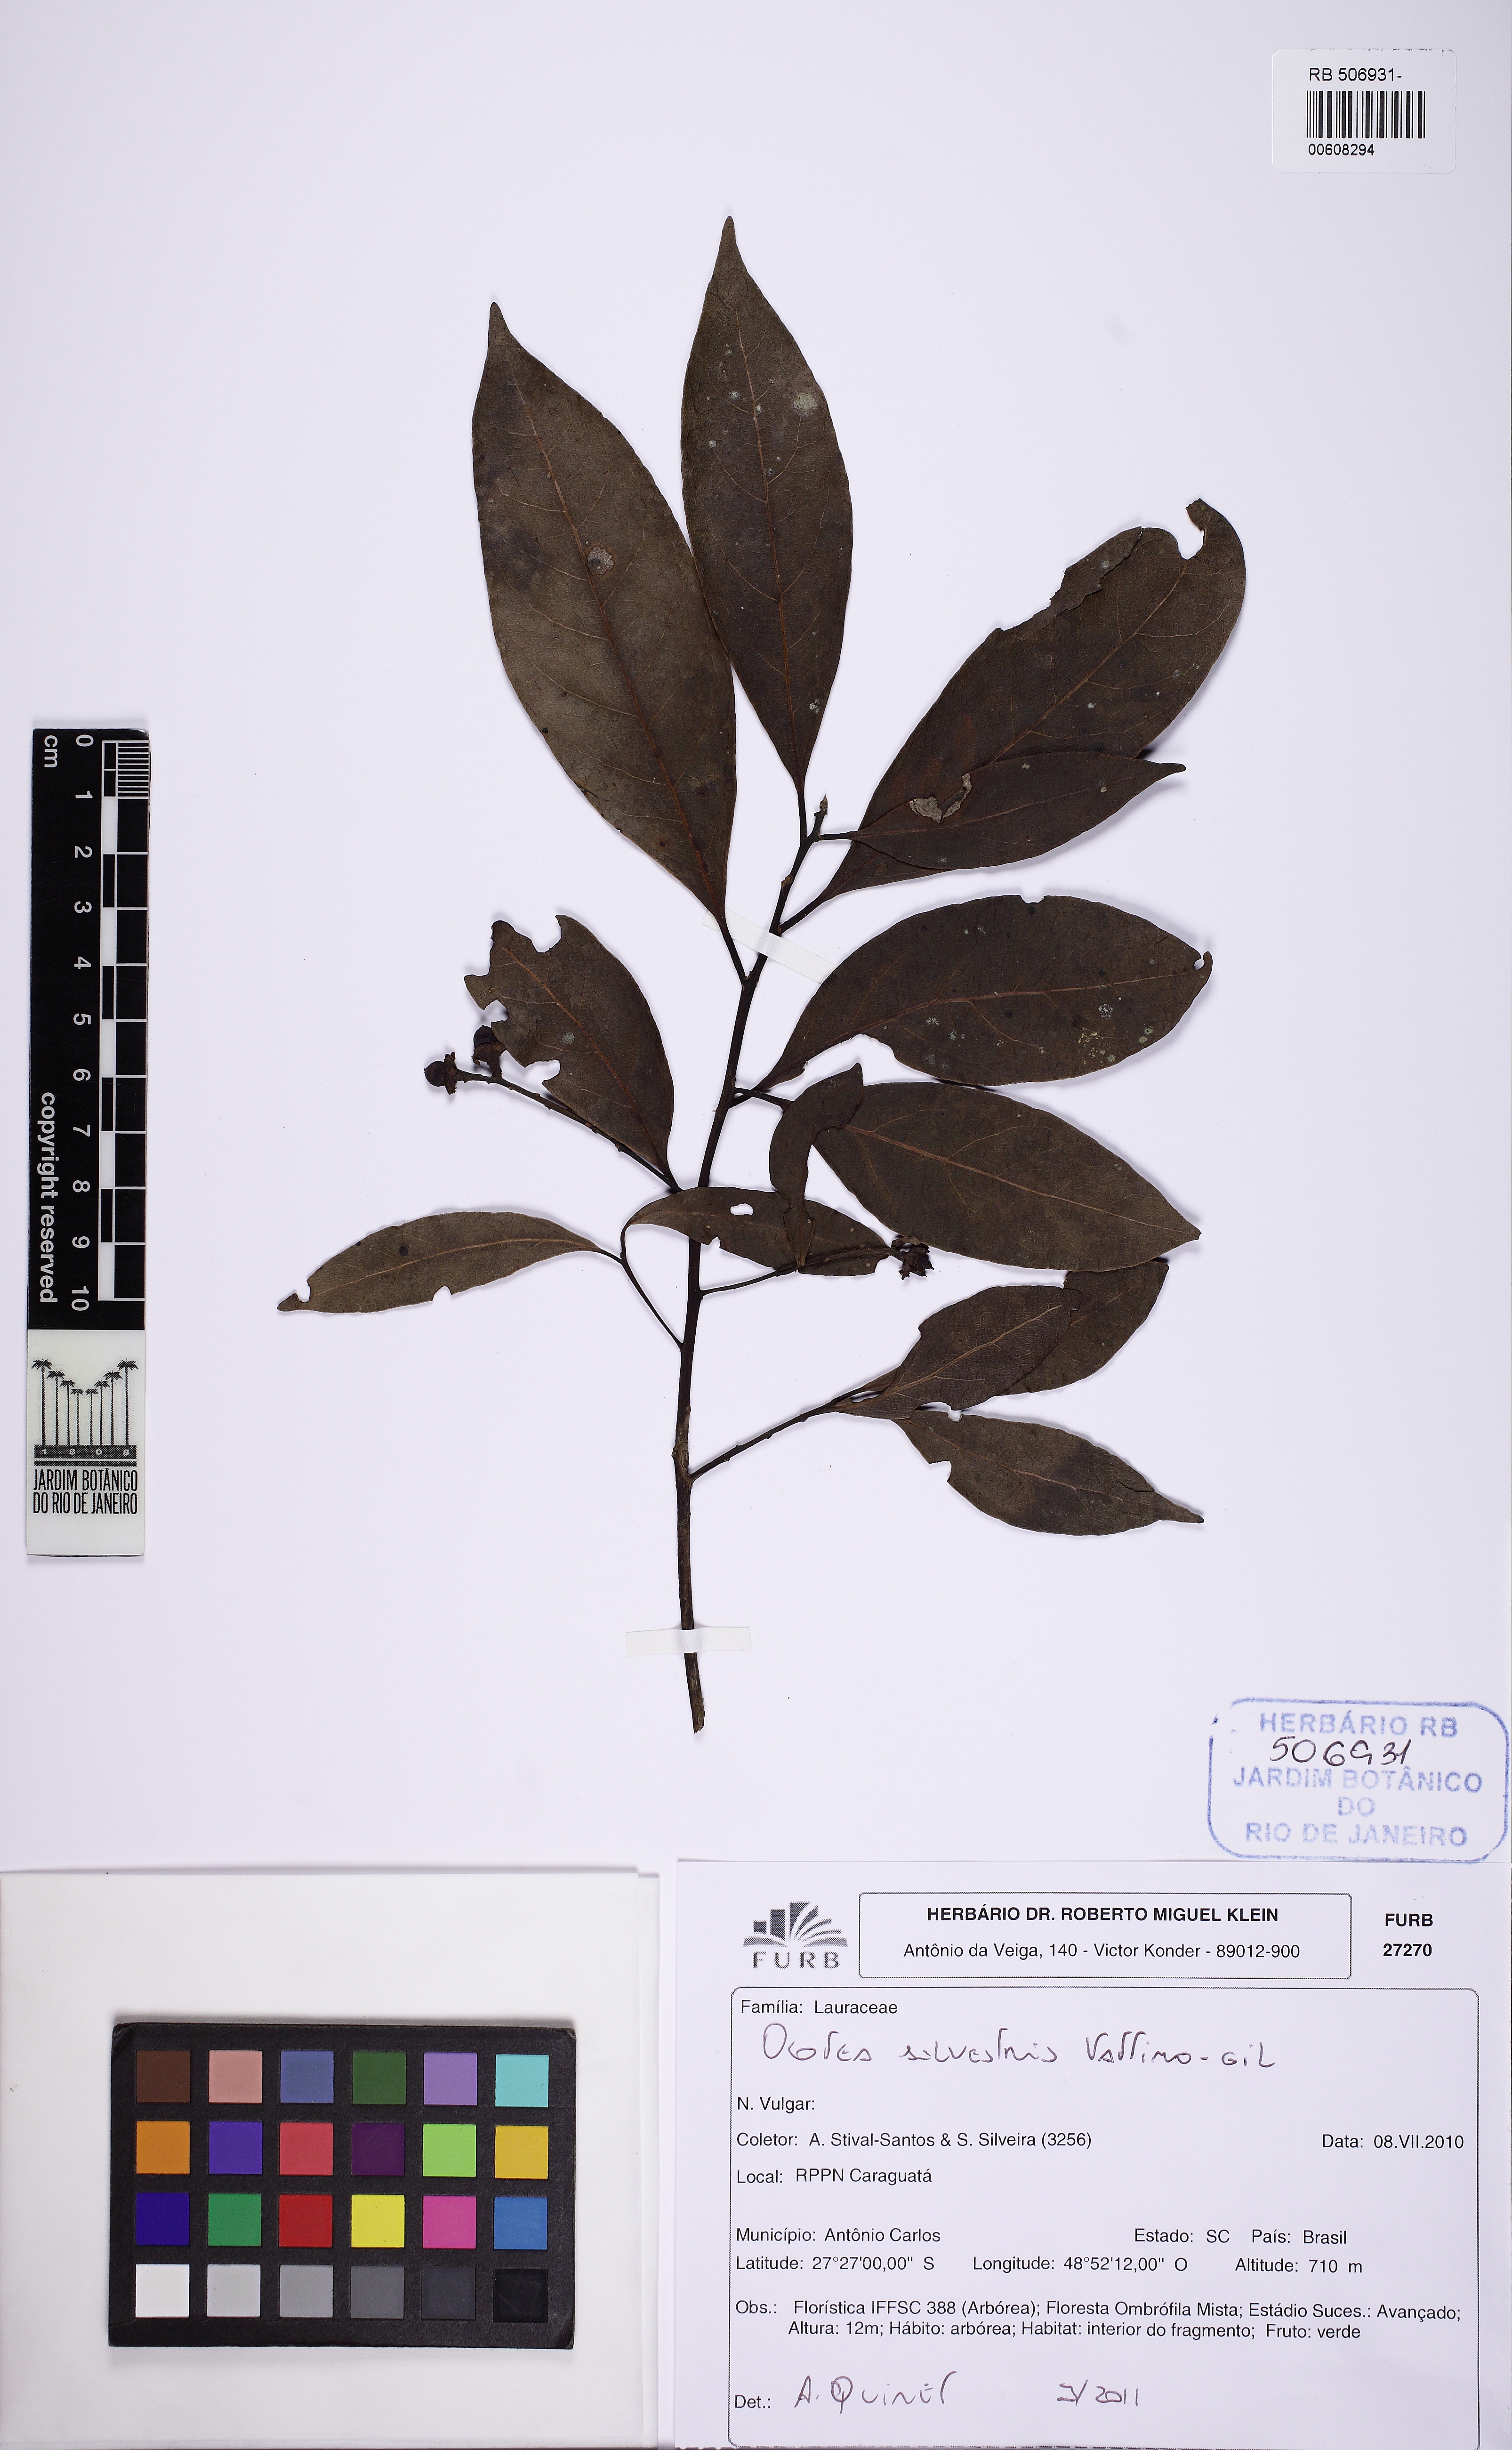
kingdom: Plantae
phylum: Tracheophyta
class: Magnoliopsida
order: Laurales
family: Lauraceae
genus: Ocotea
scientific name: Ocotea silvestris
